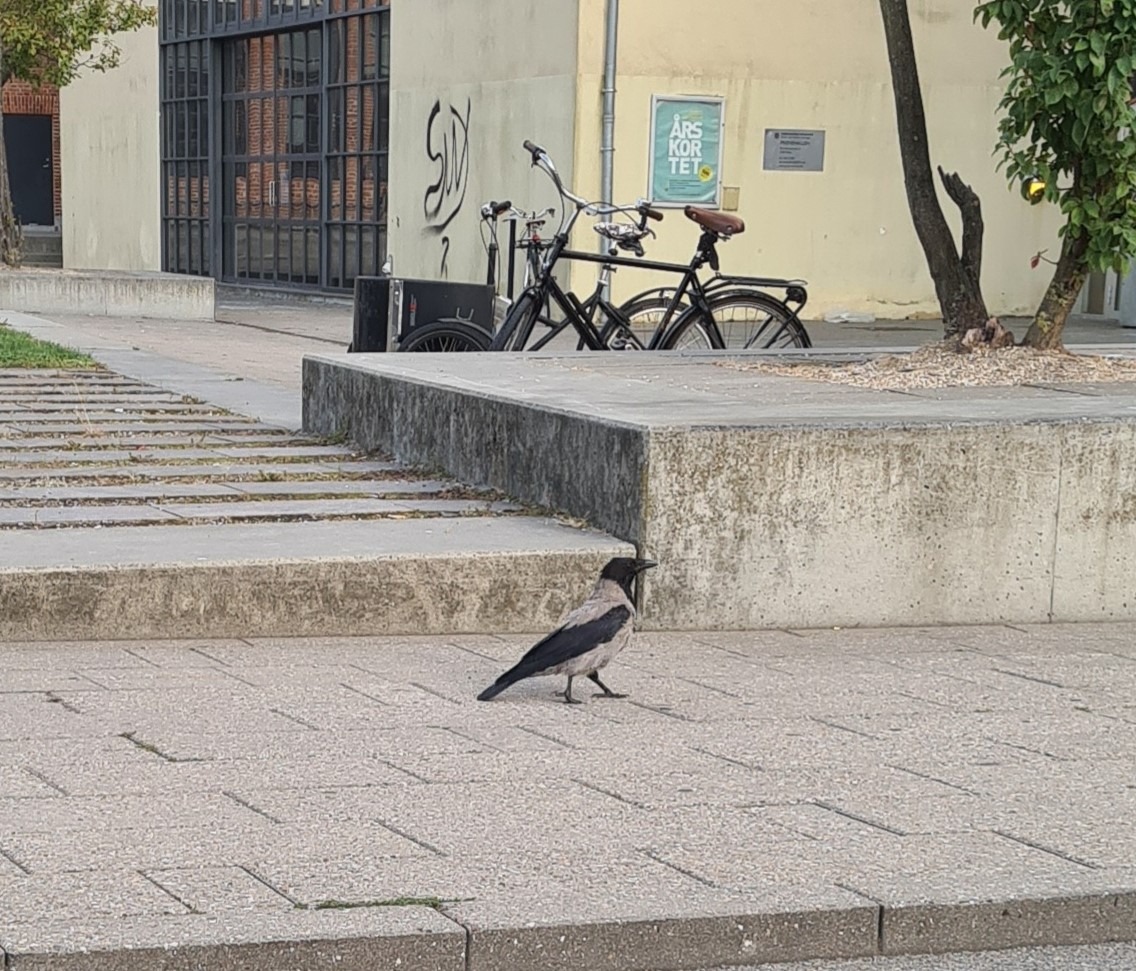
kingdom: Animalia
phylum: Chordata
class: Aves
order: Passeriformes
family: Corvidae
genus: Corvus
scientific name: Corvus cornix
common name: Gråkrage
